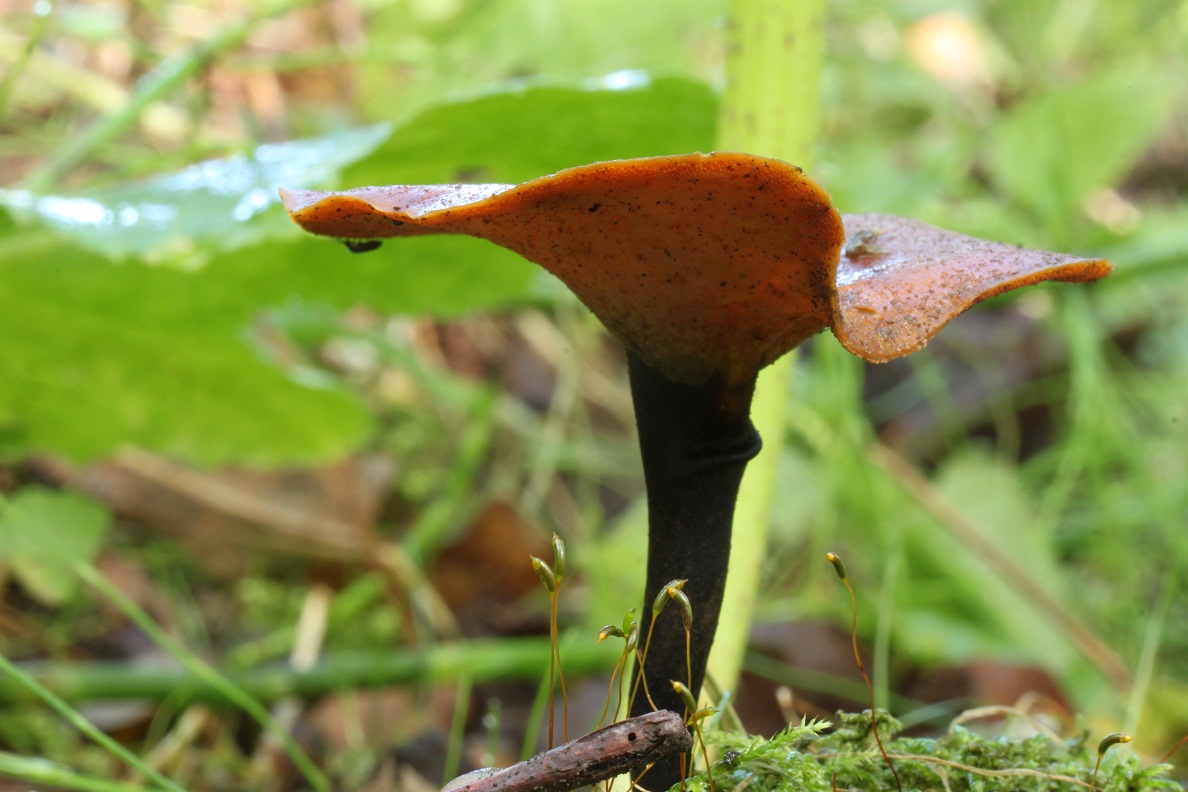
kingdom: Fungi
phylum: Basidiomycota
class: Agaricomycetes
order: Polyporales
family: Polyporaceae
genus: Picipes
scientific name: Picipes tubaeformis
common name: trompet-stilkporesvamp
